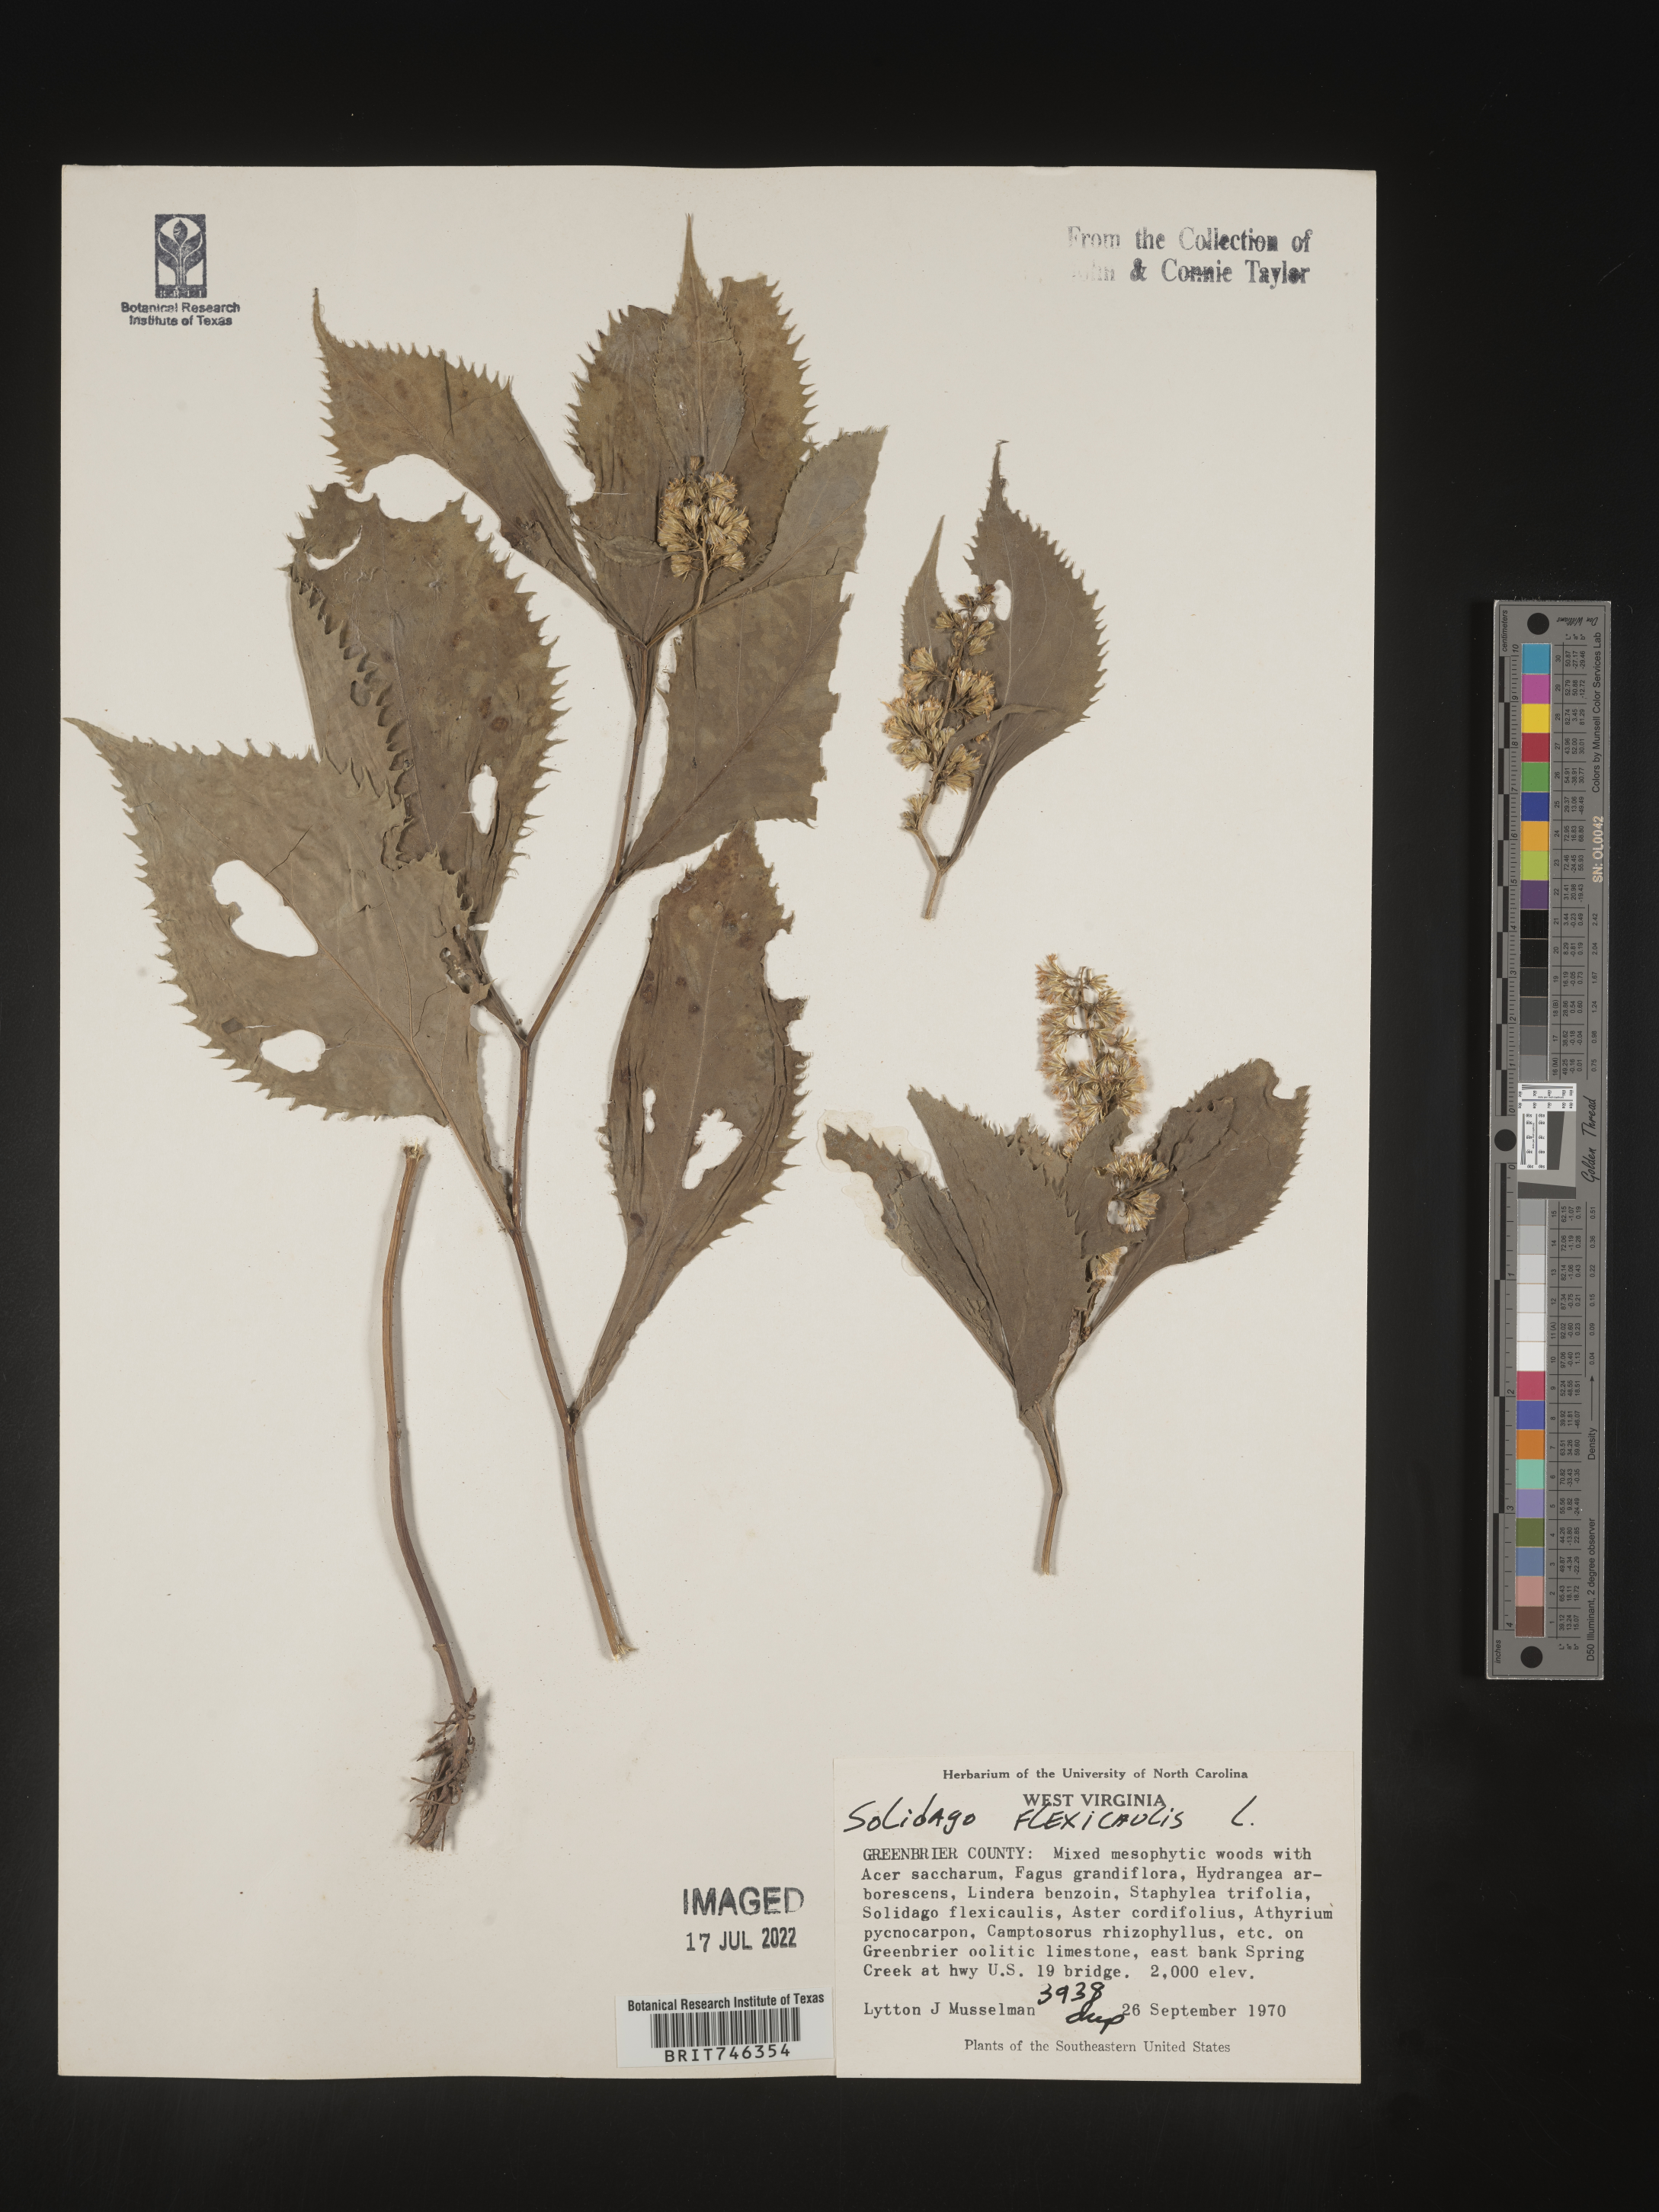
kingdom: Plantae
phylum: Tracheophyta
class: Magnoliopsida
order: Asterales
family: Asteraceae
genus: Solidago
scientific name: Solidago flexicaulis
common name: Zig-zag goldenrod
